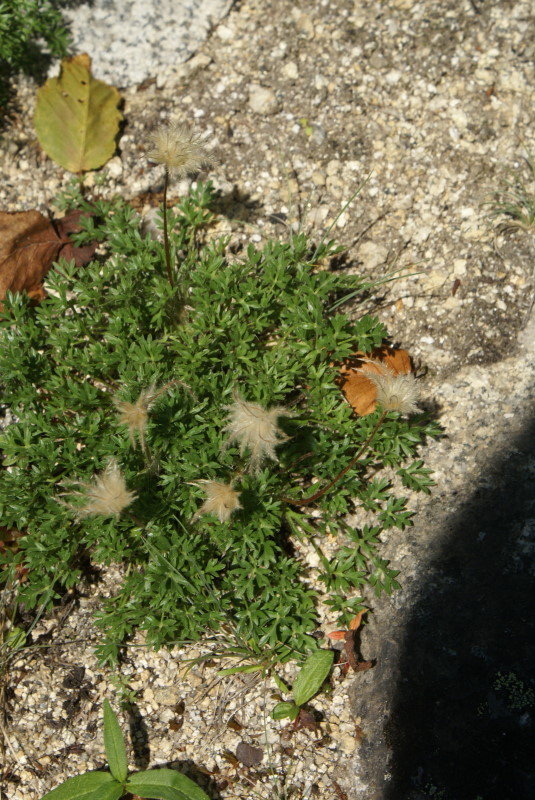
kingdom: Plantae
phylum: Tracheophyta
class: Magnoliopsida
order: Ranunculales
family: Ranunculaceae
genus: Pulsatilla
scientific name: Pulsatilla magadanensis
